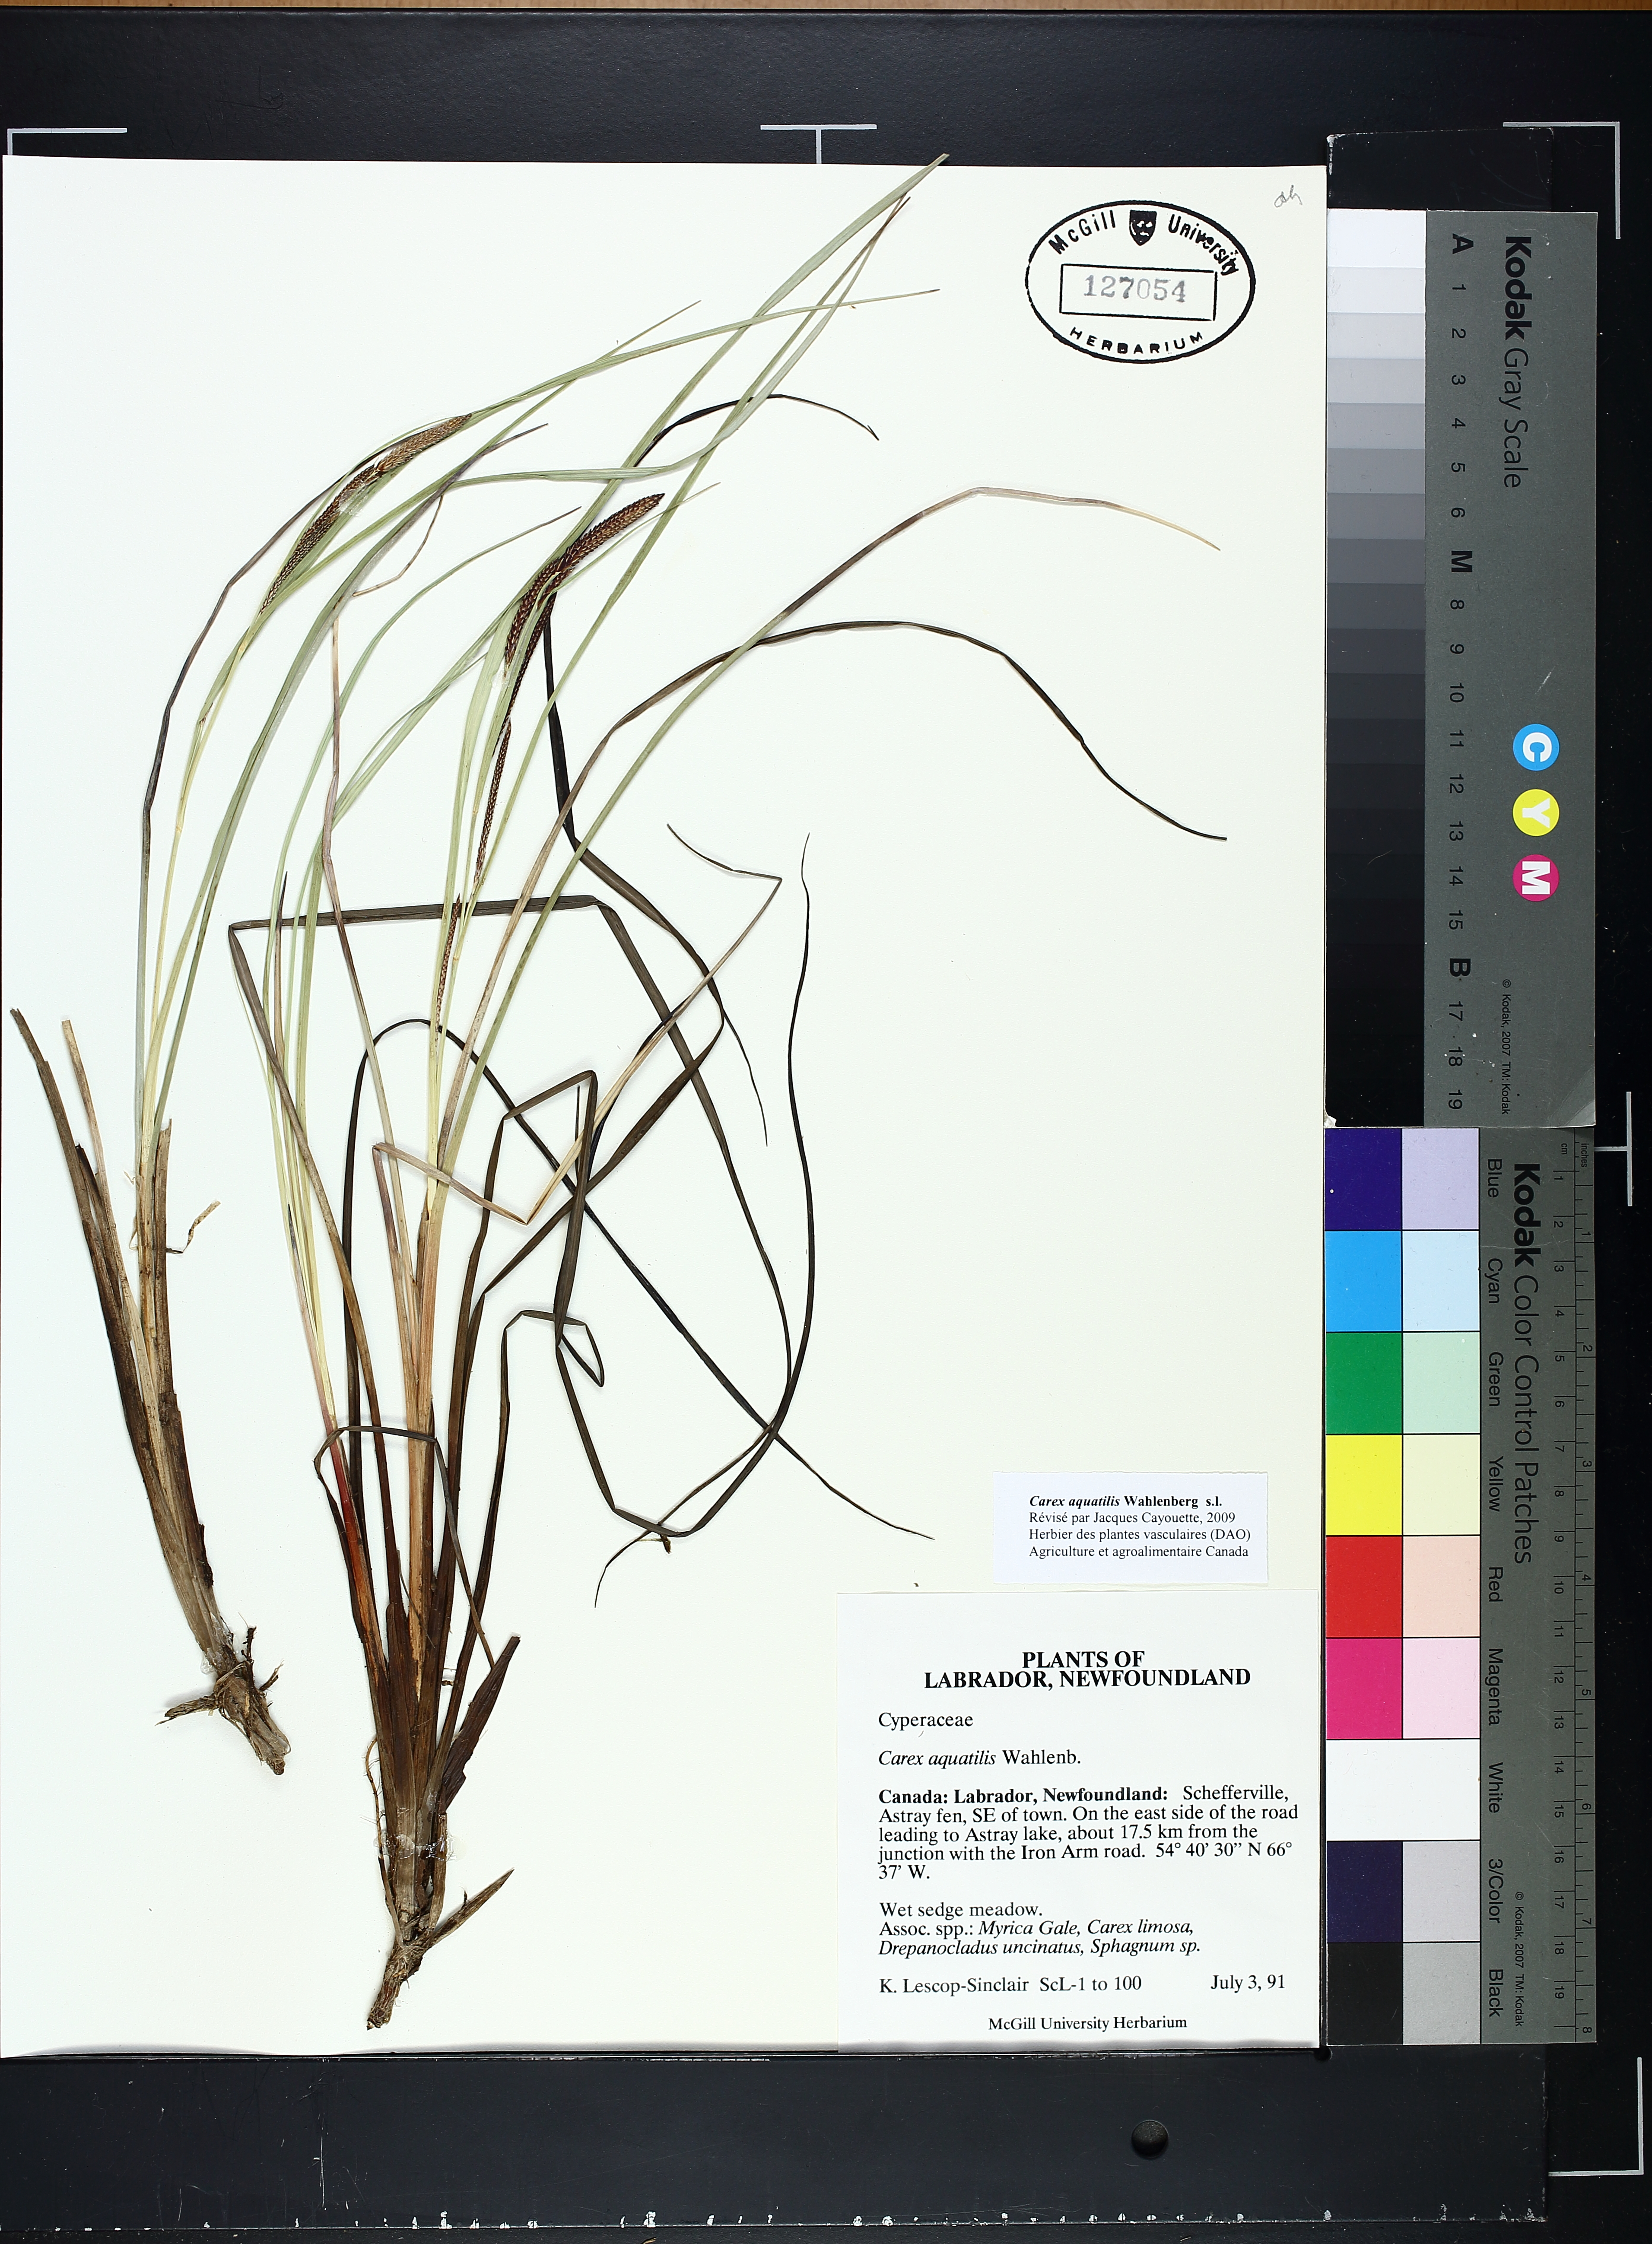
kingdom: Plantae
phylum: Tracheophyta
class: Liliopsida
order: Poales
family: Cyperaceae
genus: Carex
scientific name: Carex aquatilis
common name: Water sedge
